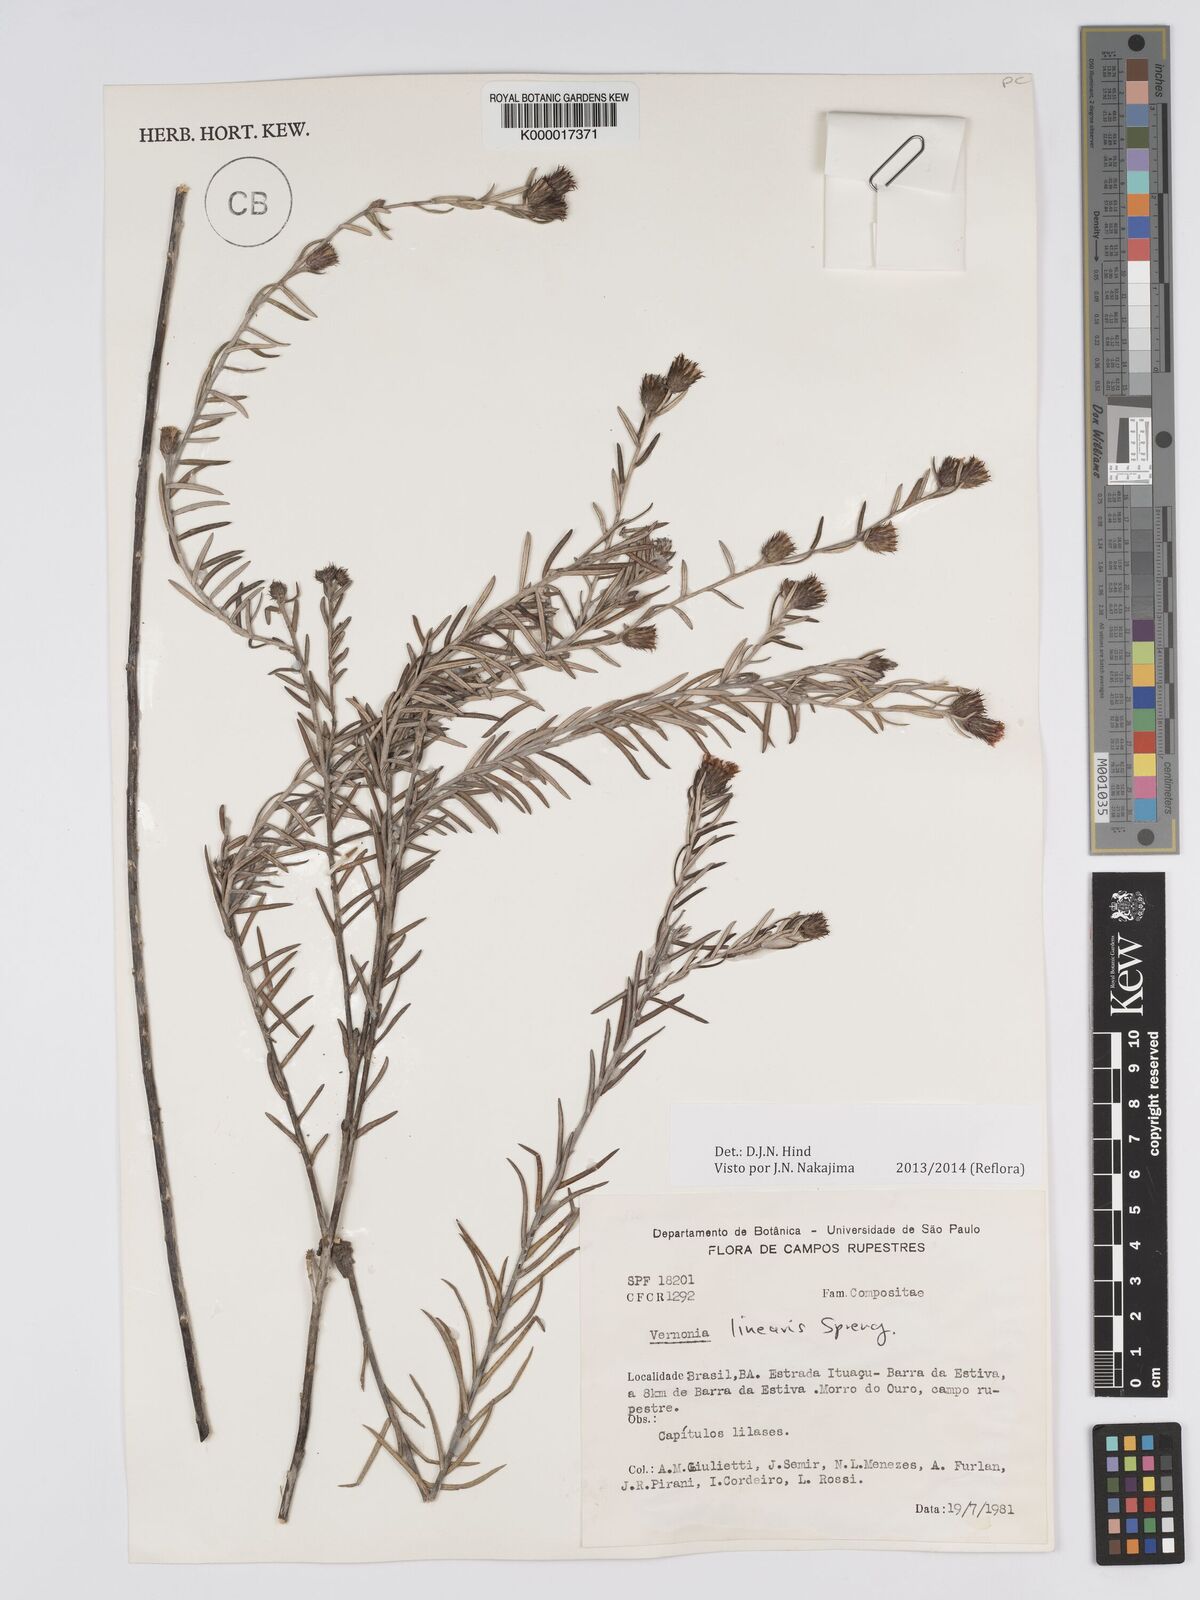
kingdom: Plantae
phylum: Tracheophyta
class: Magnoliopsida
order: Asterales
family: Asteraceae
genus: Lessingianthus
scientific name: Lessingianthus linearis
